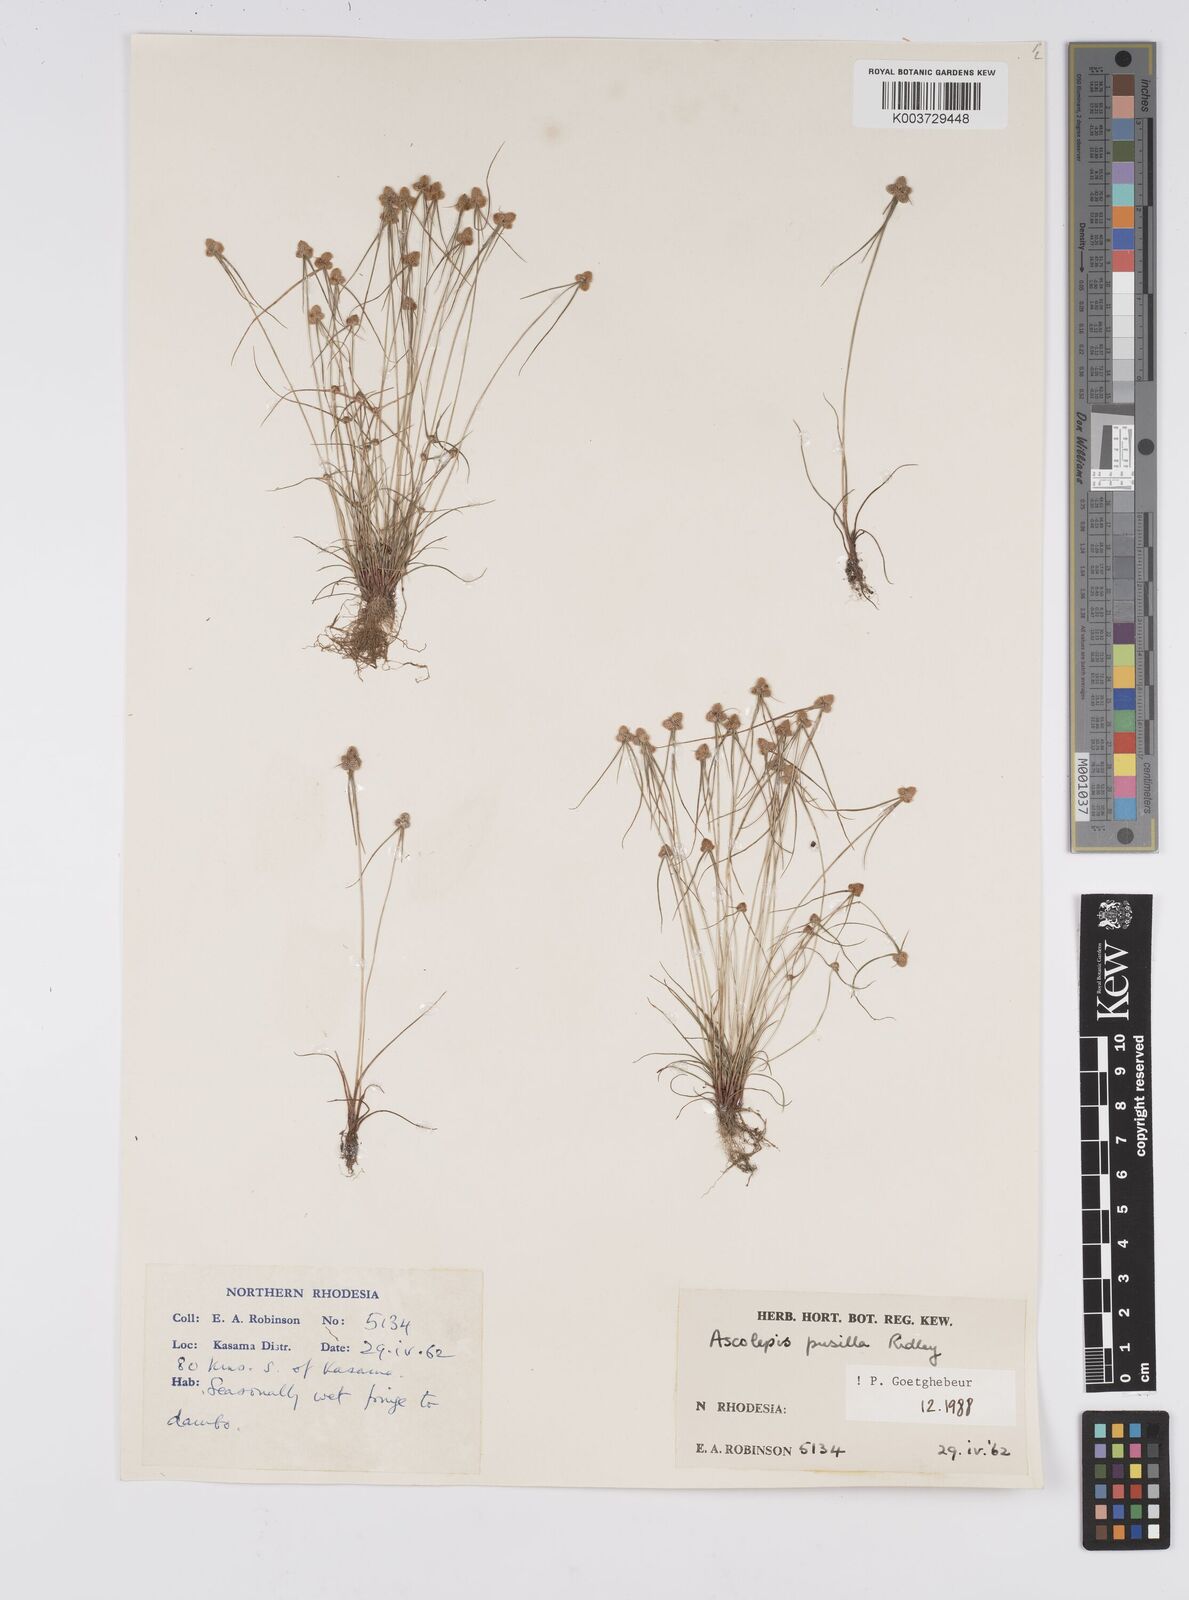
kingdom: Plantae
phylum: Tracheophyta
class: Liliopsida
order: Poales
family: Cyperaceae
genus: Cyperus
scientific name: Cyperus
